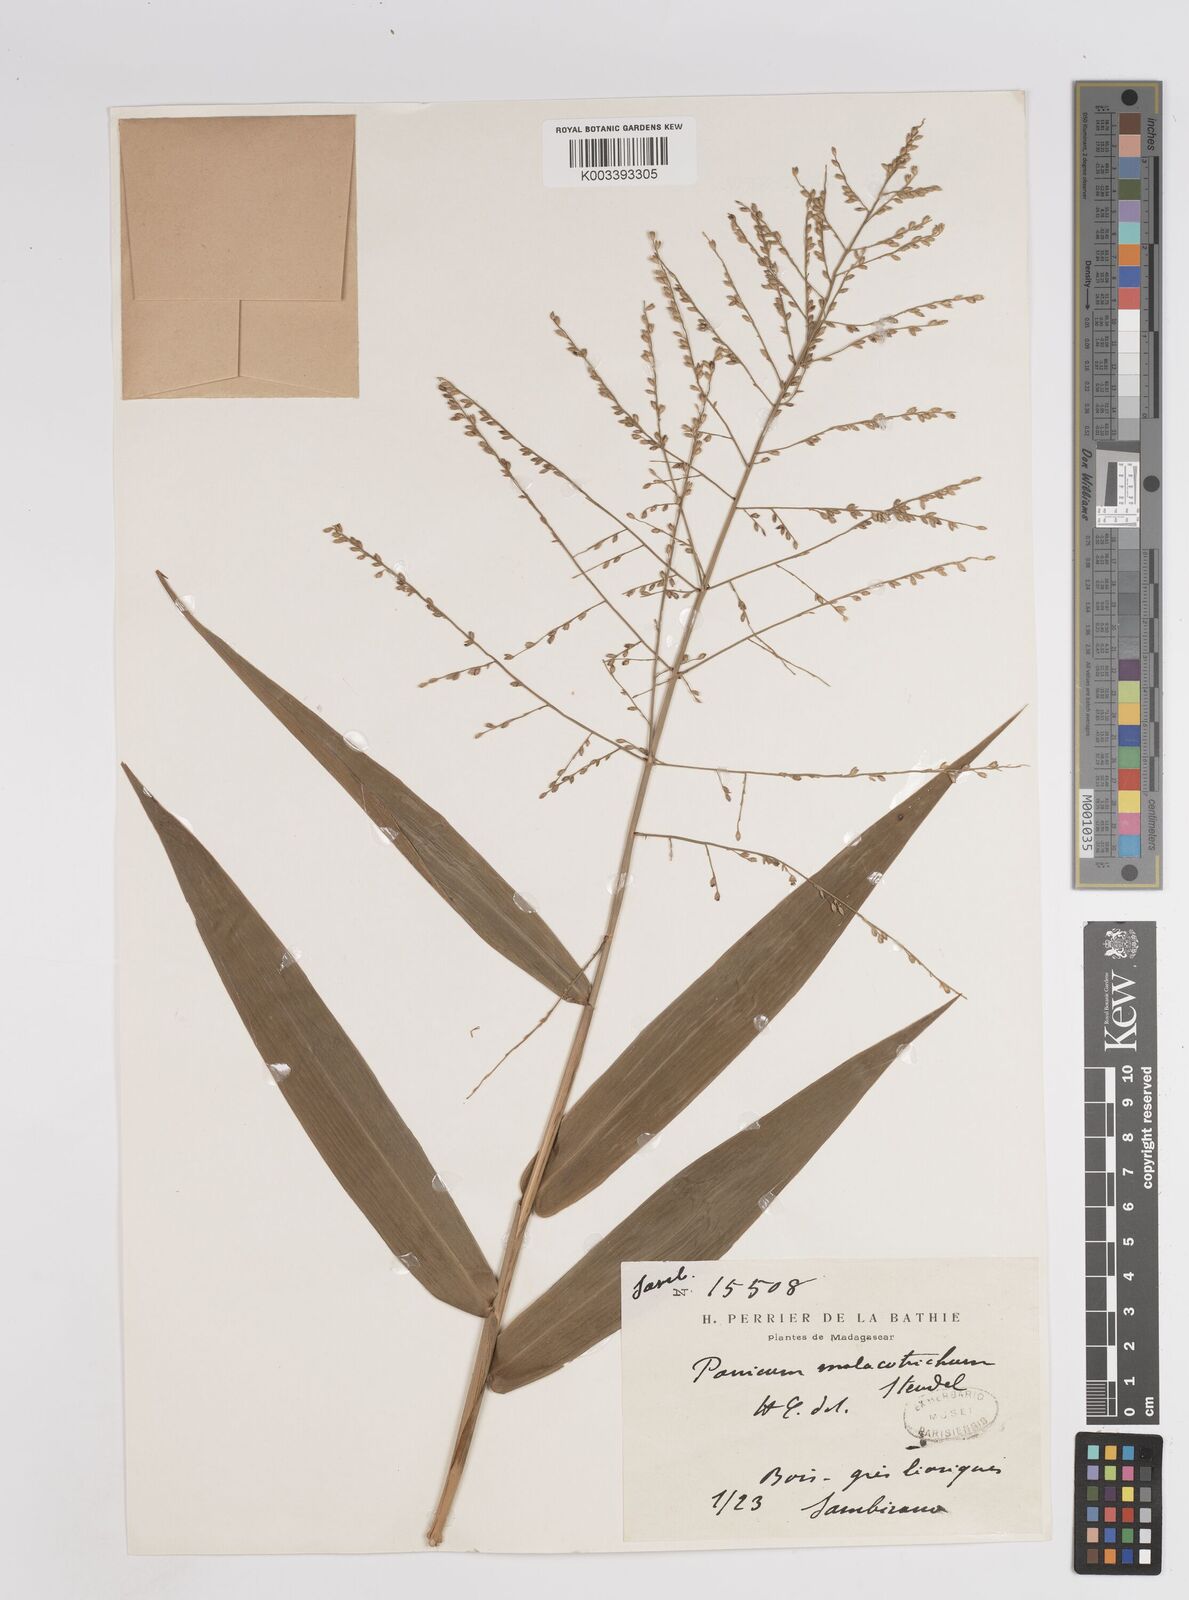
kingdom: Plantae
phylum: Tracheophyta
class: Liliopsida
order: Poales
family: Poaceae
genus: Panicum
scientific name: Panicum malacotrichum
